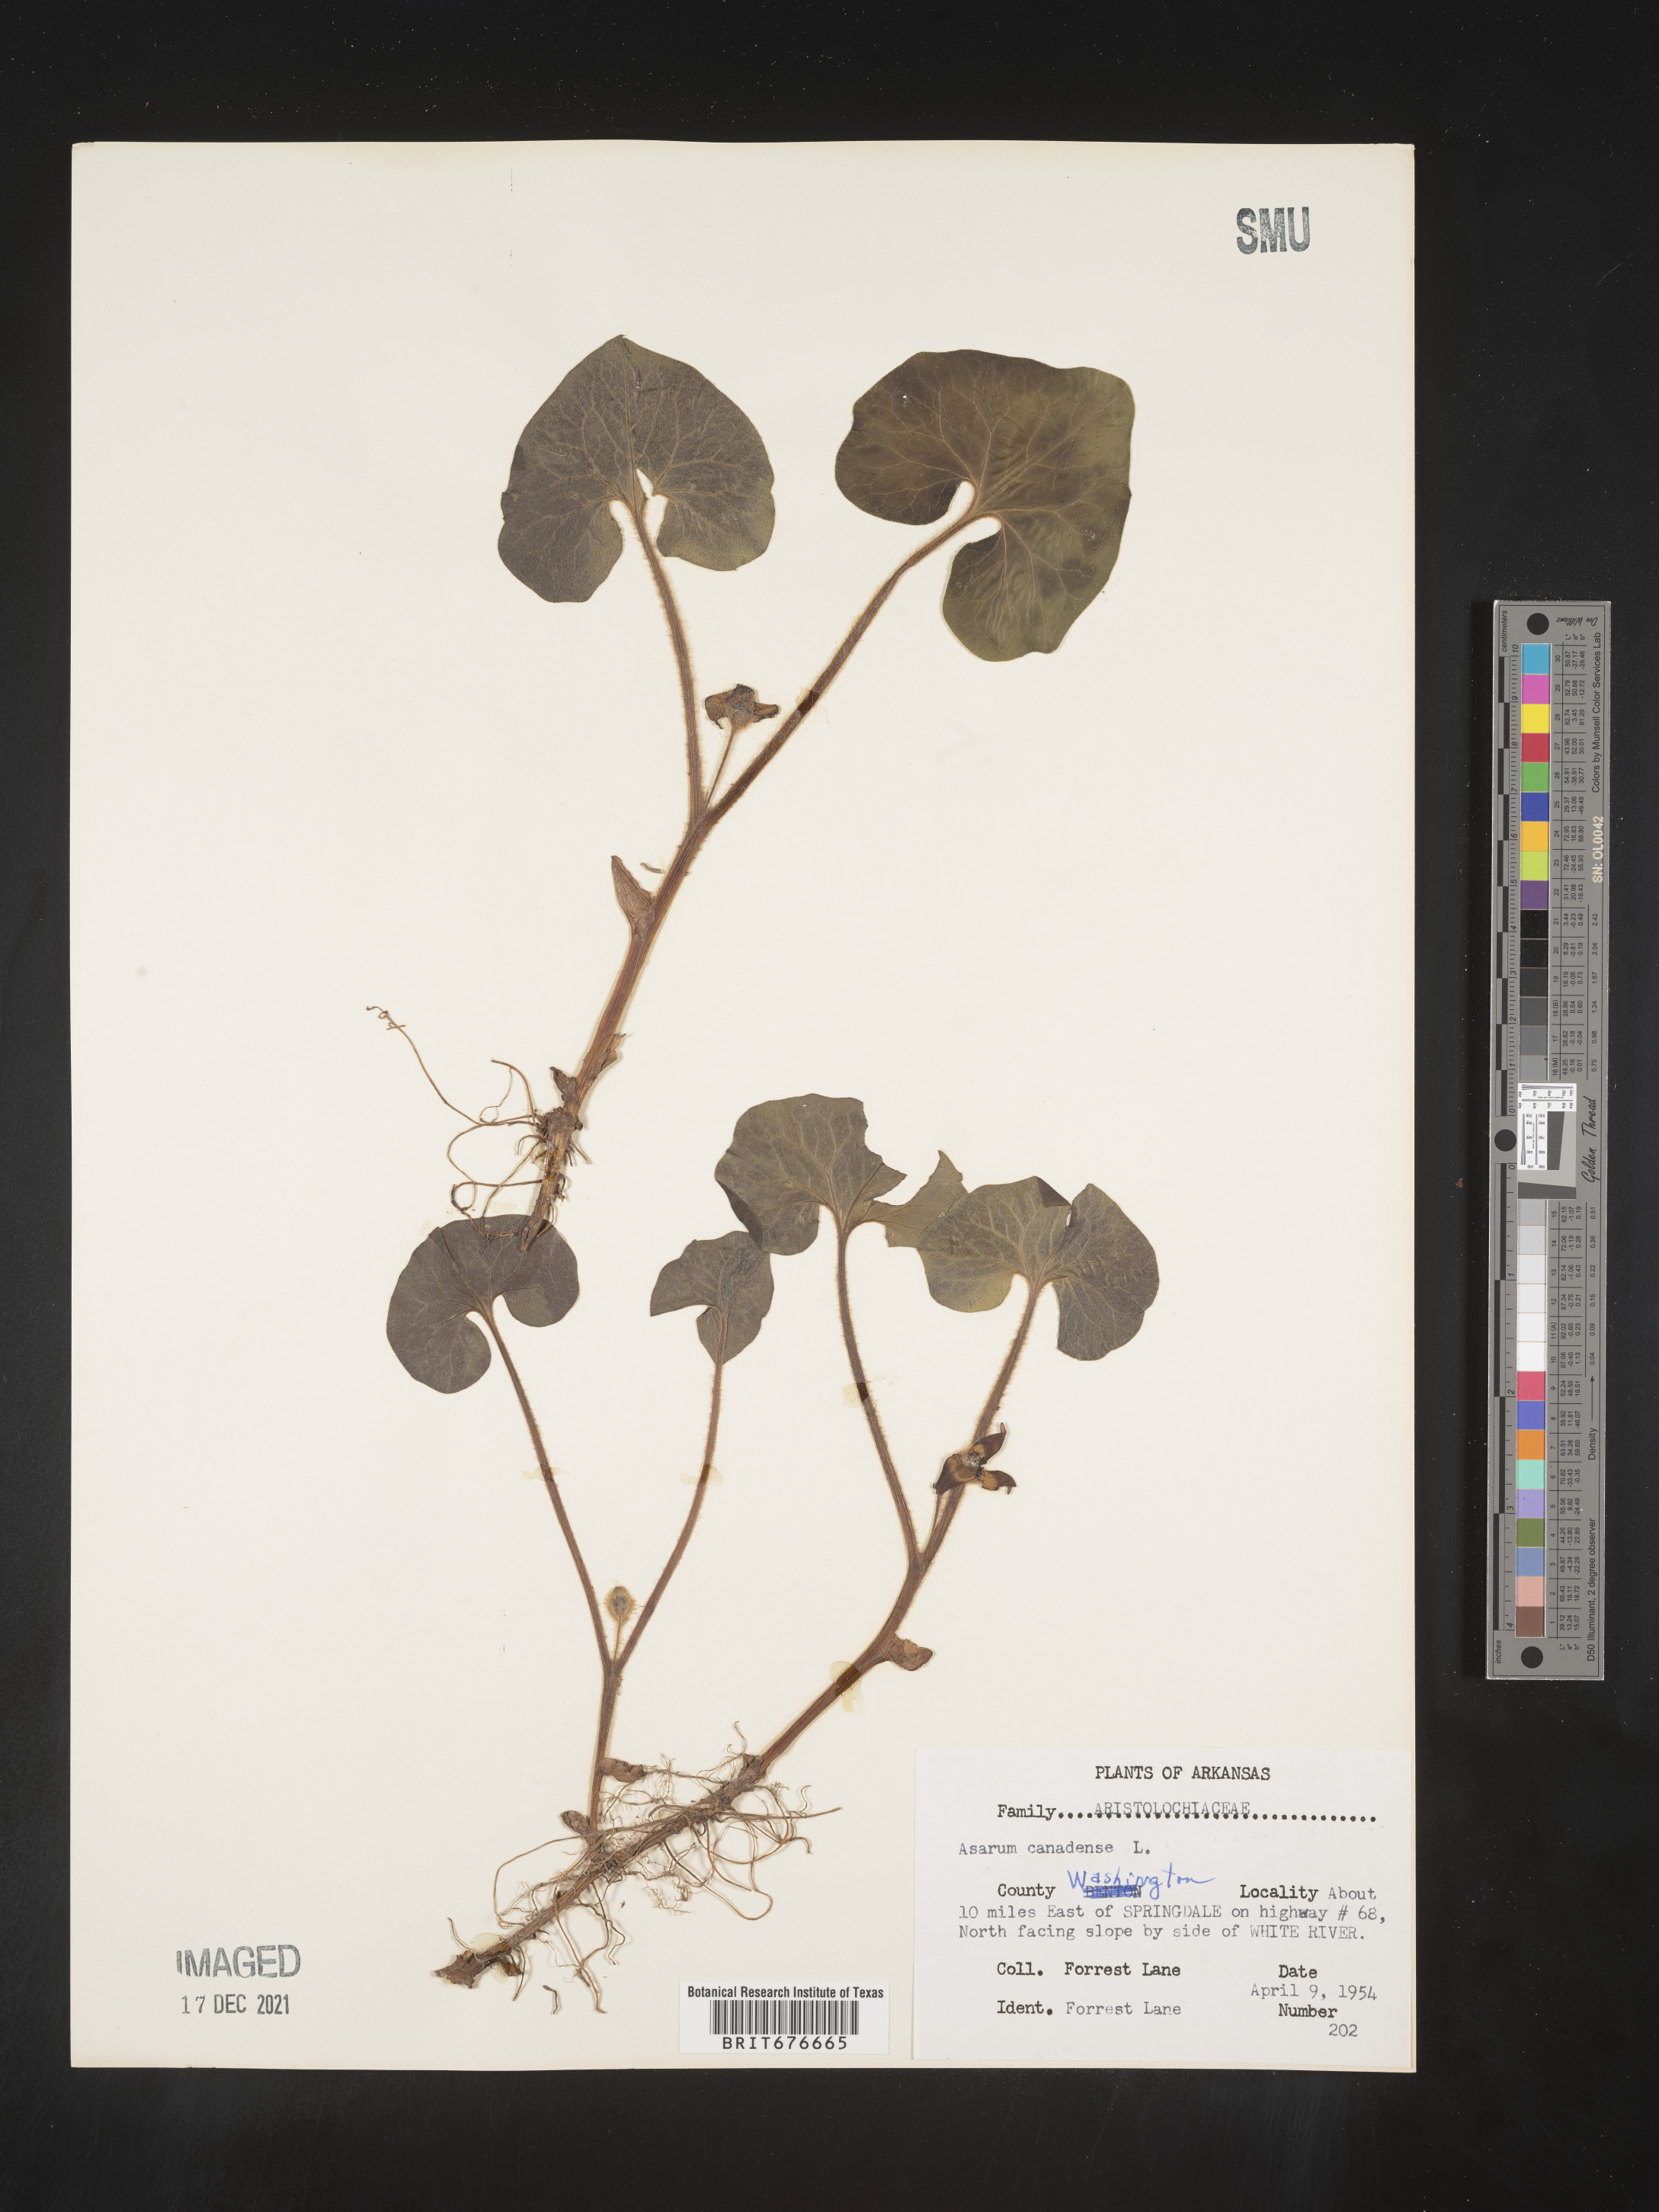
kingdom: Plantae
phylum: Tracheophyta
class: Magnoliopsida
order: Piperales
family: Aristolochiaceae
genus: Asarum
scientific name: Asarum canadense
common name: Wild ginger
